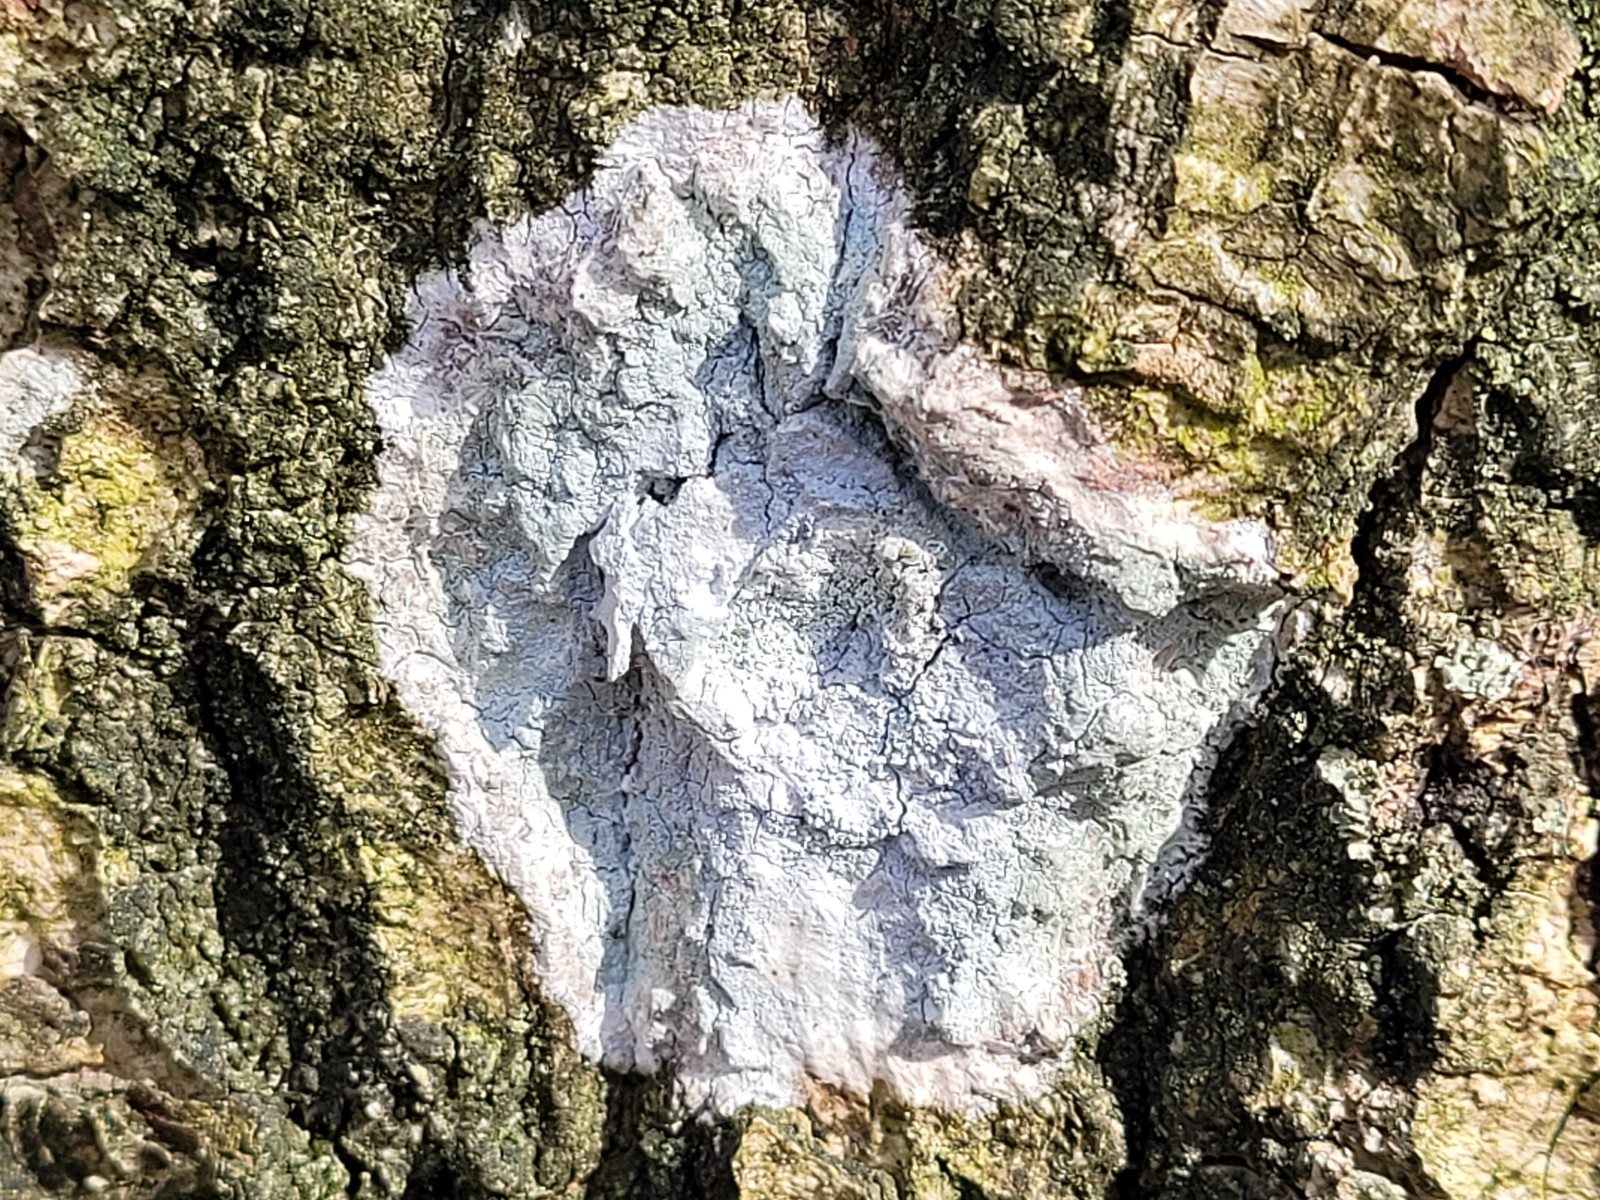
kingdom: Fungi
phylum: Ascomycota
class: Lecanoromycetes
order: Ostropales
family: Phlyctidaceae
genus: Phlyctis
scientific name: Phlyctis argena
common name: almindelig sølvlav
